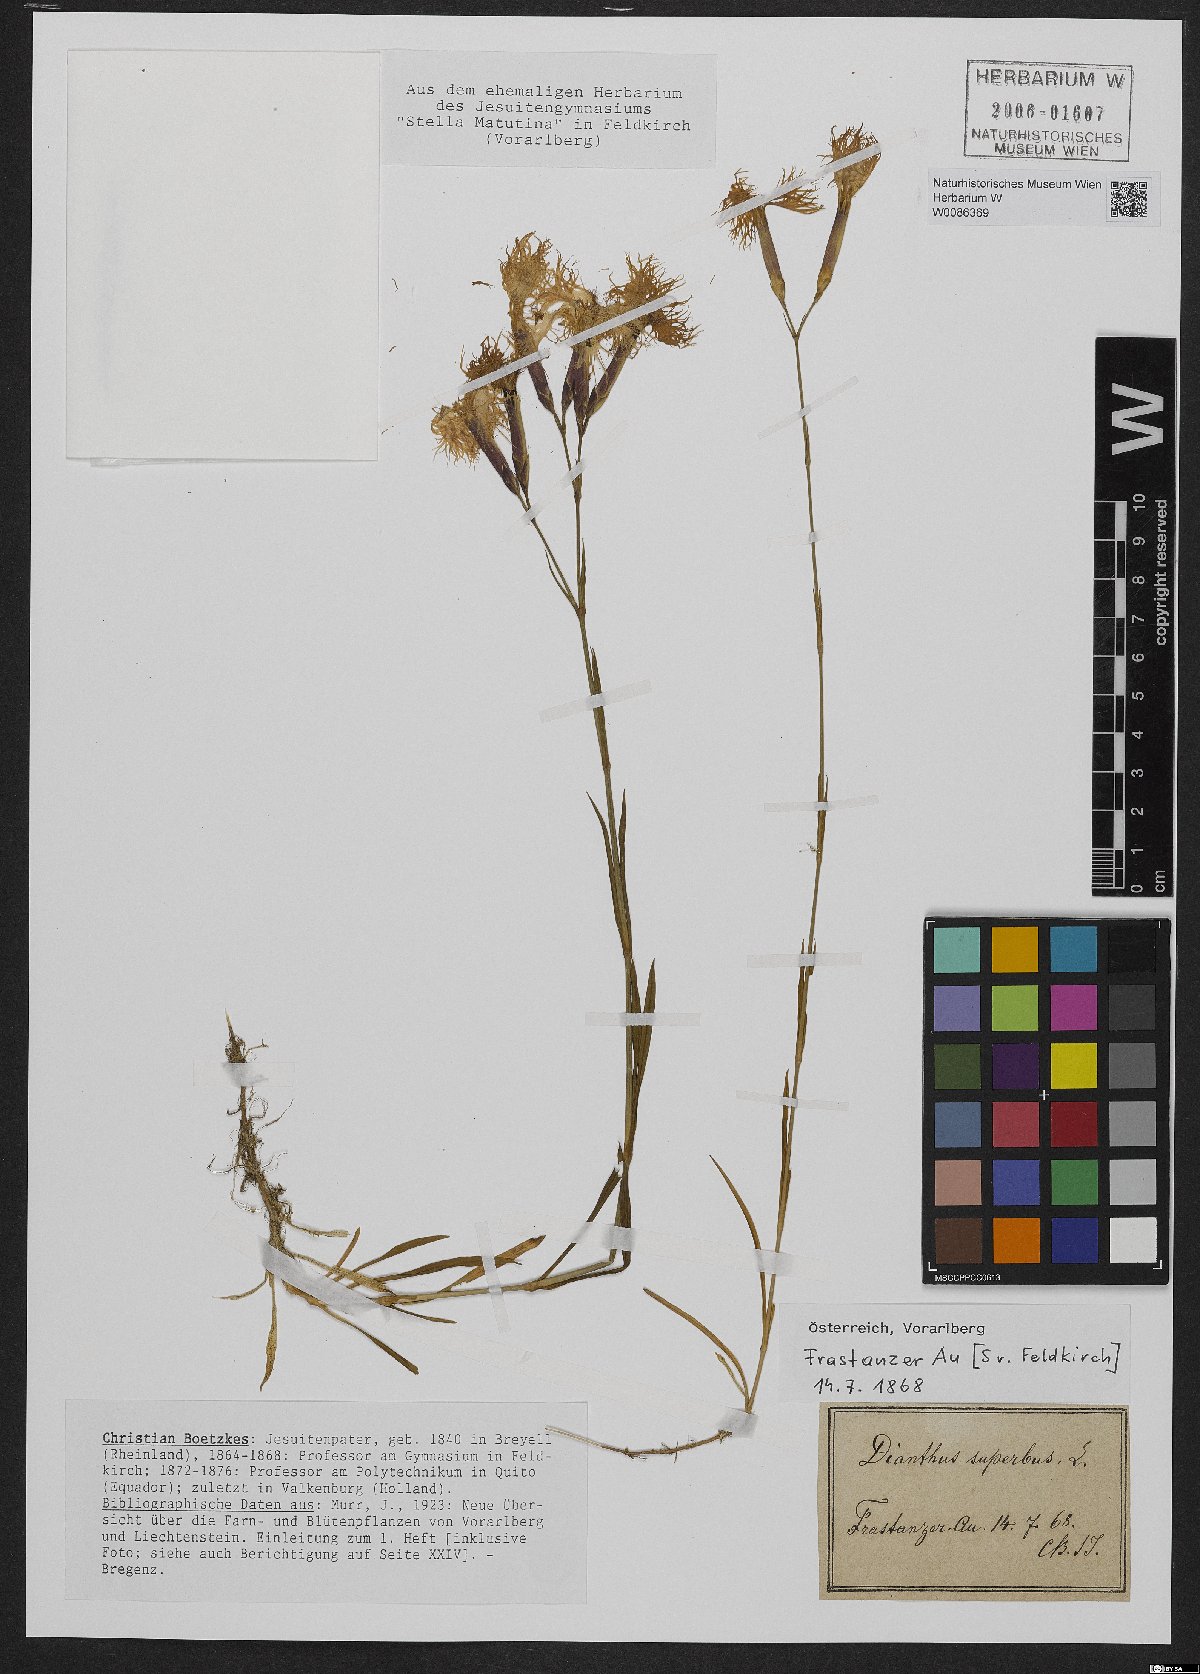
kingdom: Plantae
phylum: Tracheophyta
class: Magnoliopsida
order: Caryophyllales
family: Caryophyllaceae
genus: Dianthus
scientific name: Dianthus superbus
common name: Fringed pink
